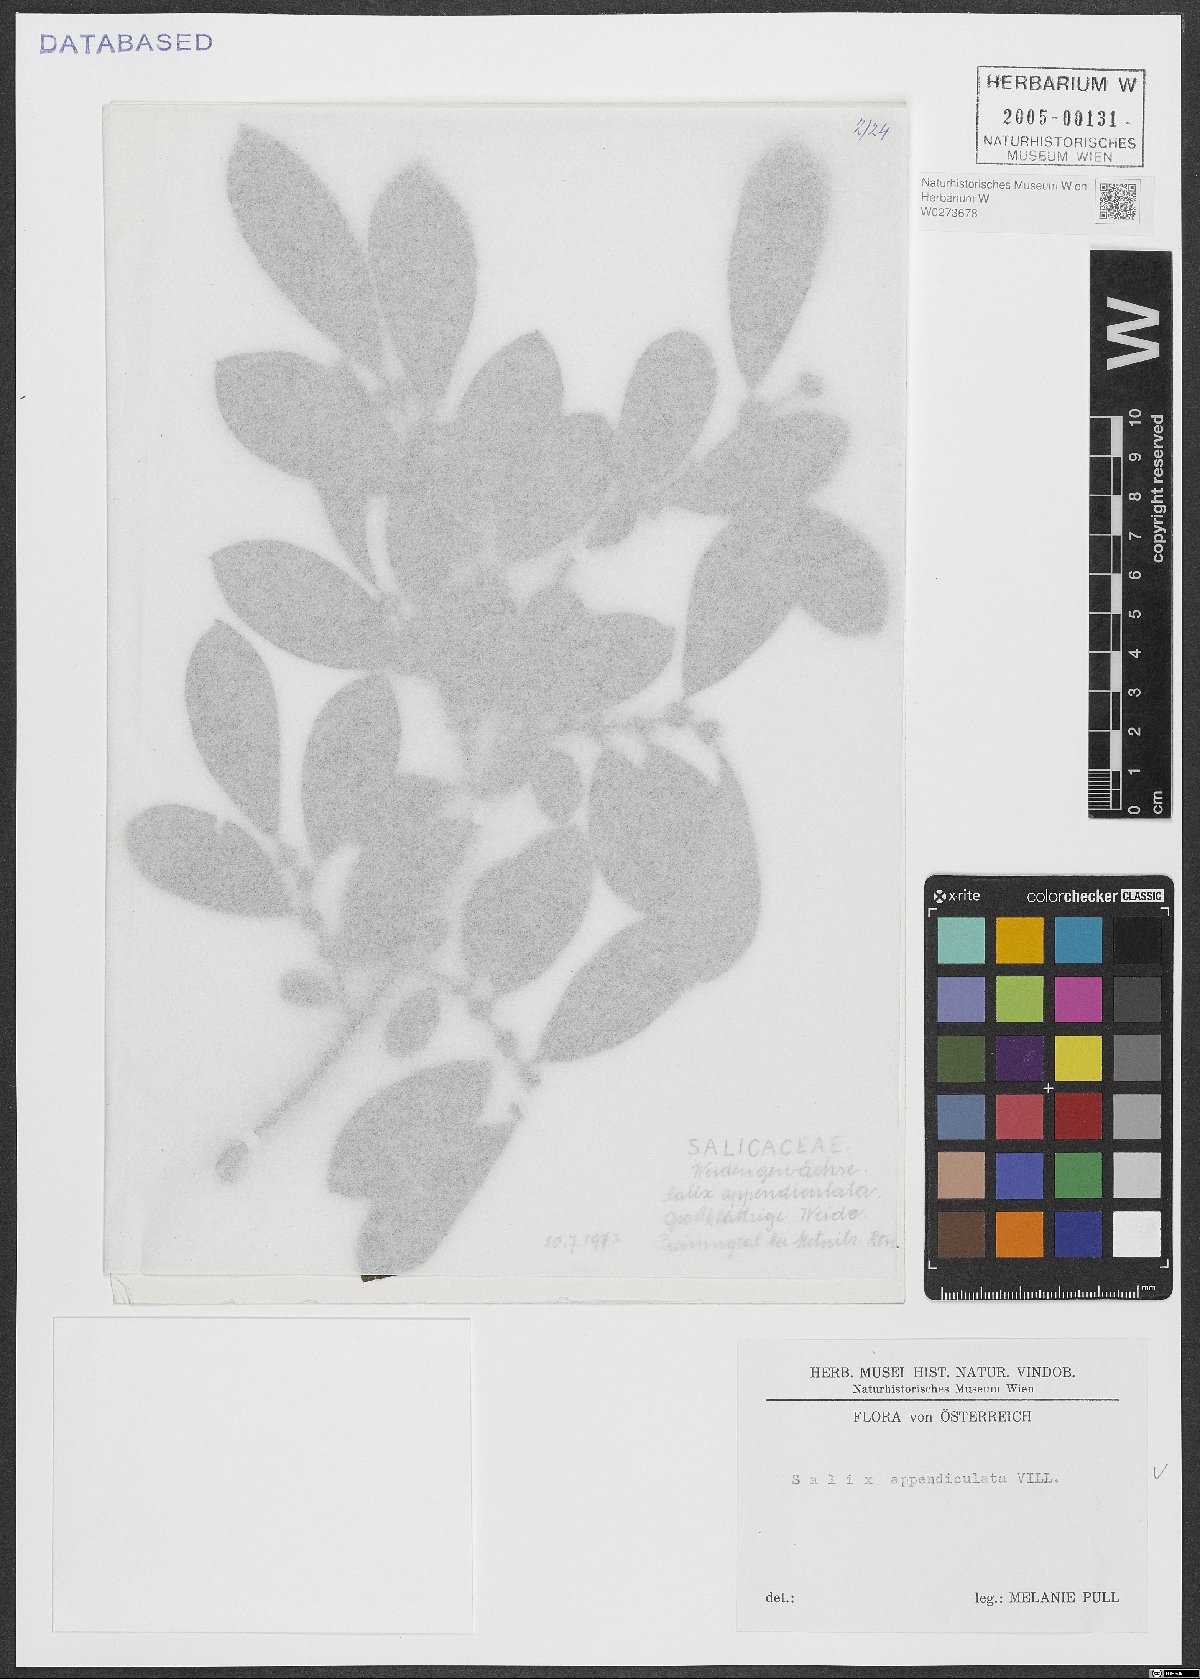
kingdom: Plantae
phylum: Tracheophyta
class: Magnoliopsida
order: Malpighiales
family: Salicaceae
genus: Salix
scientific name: Salix appendiculata
